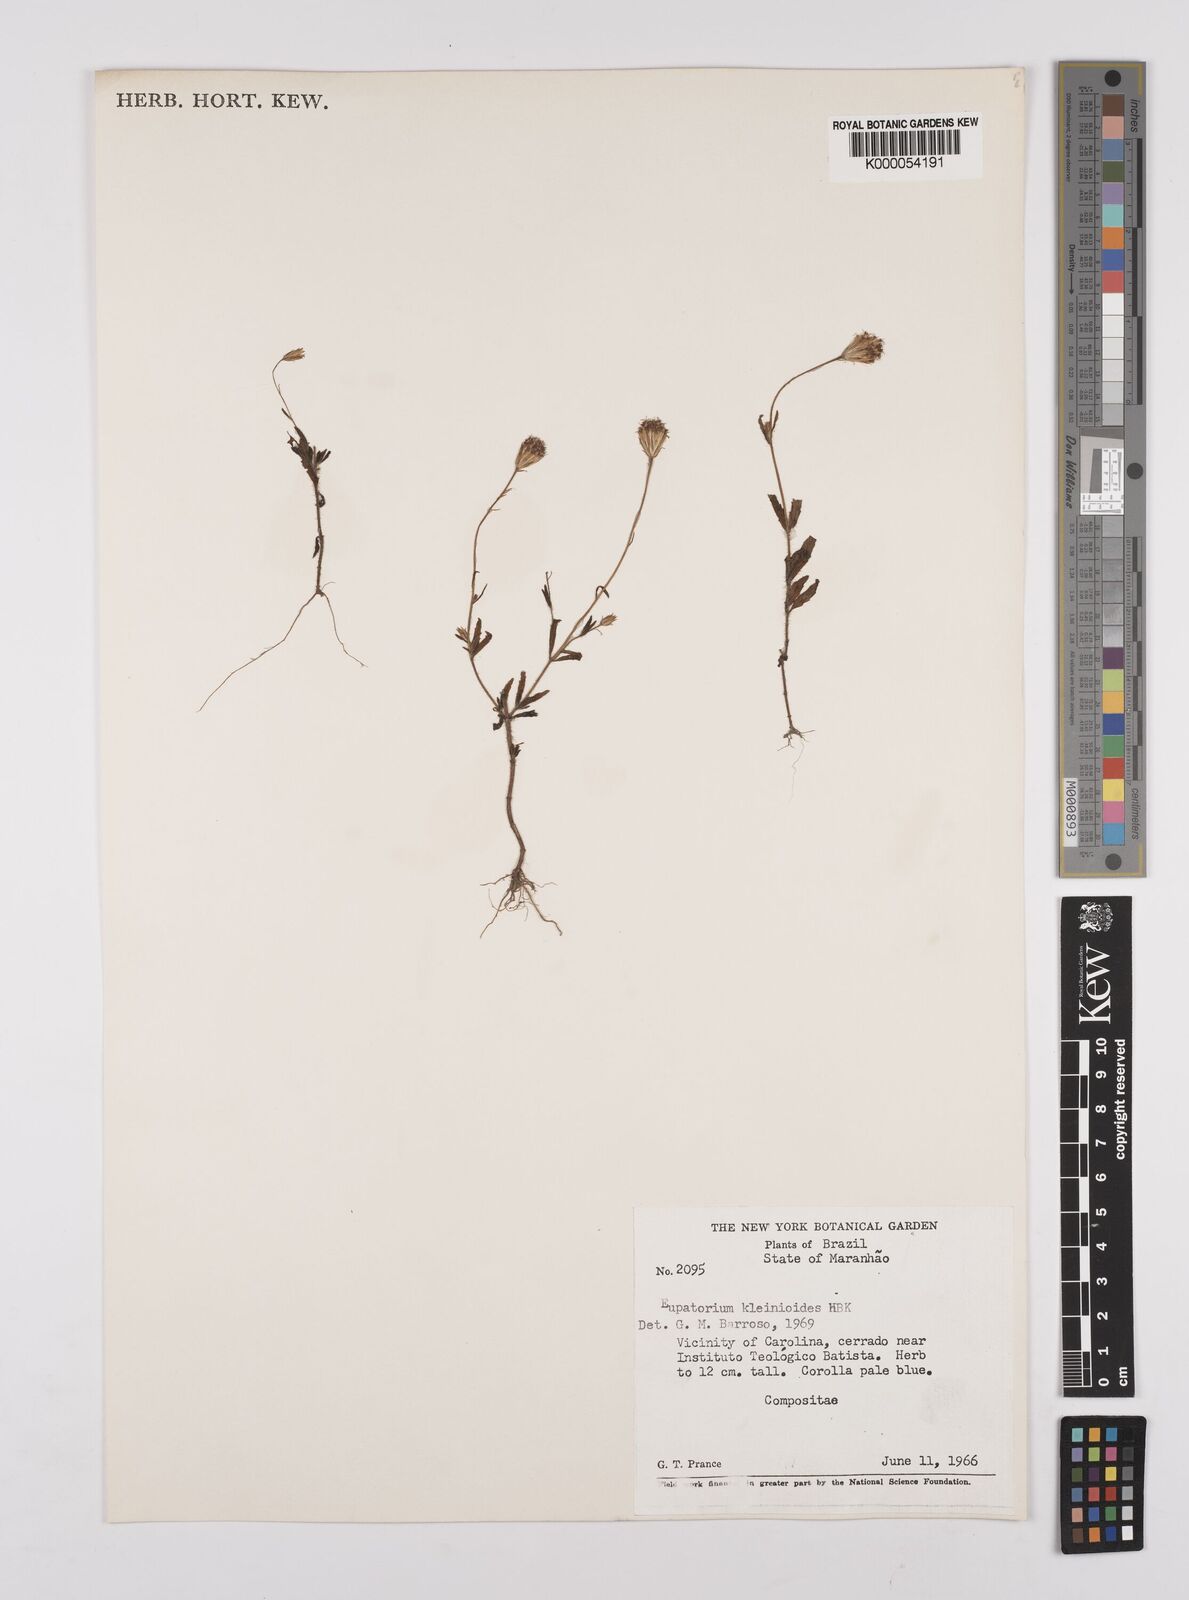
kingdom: Plantae
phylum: Tracheophyta
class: Magnoliopsida
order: Asterales
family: Asteraceae
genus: Praxelis
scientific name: Praxelis kleinioides
